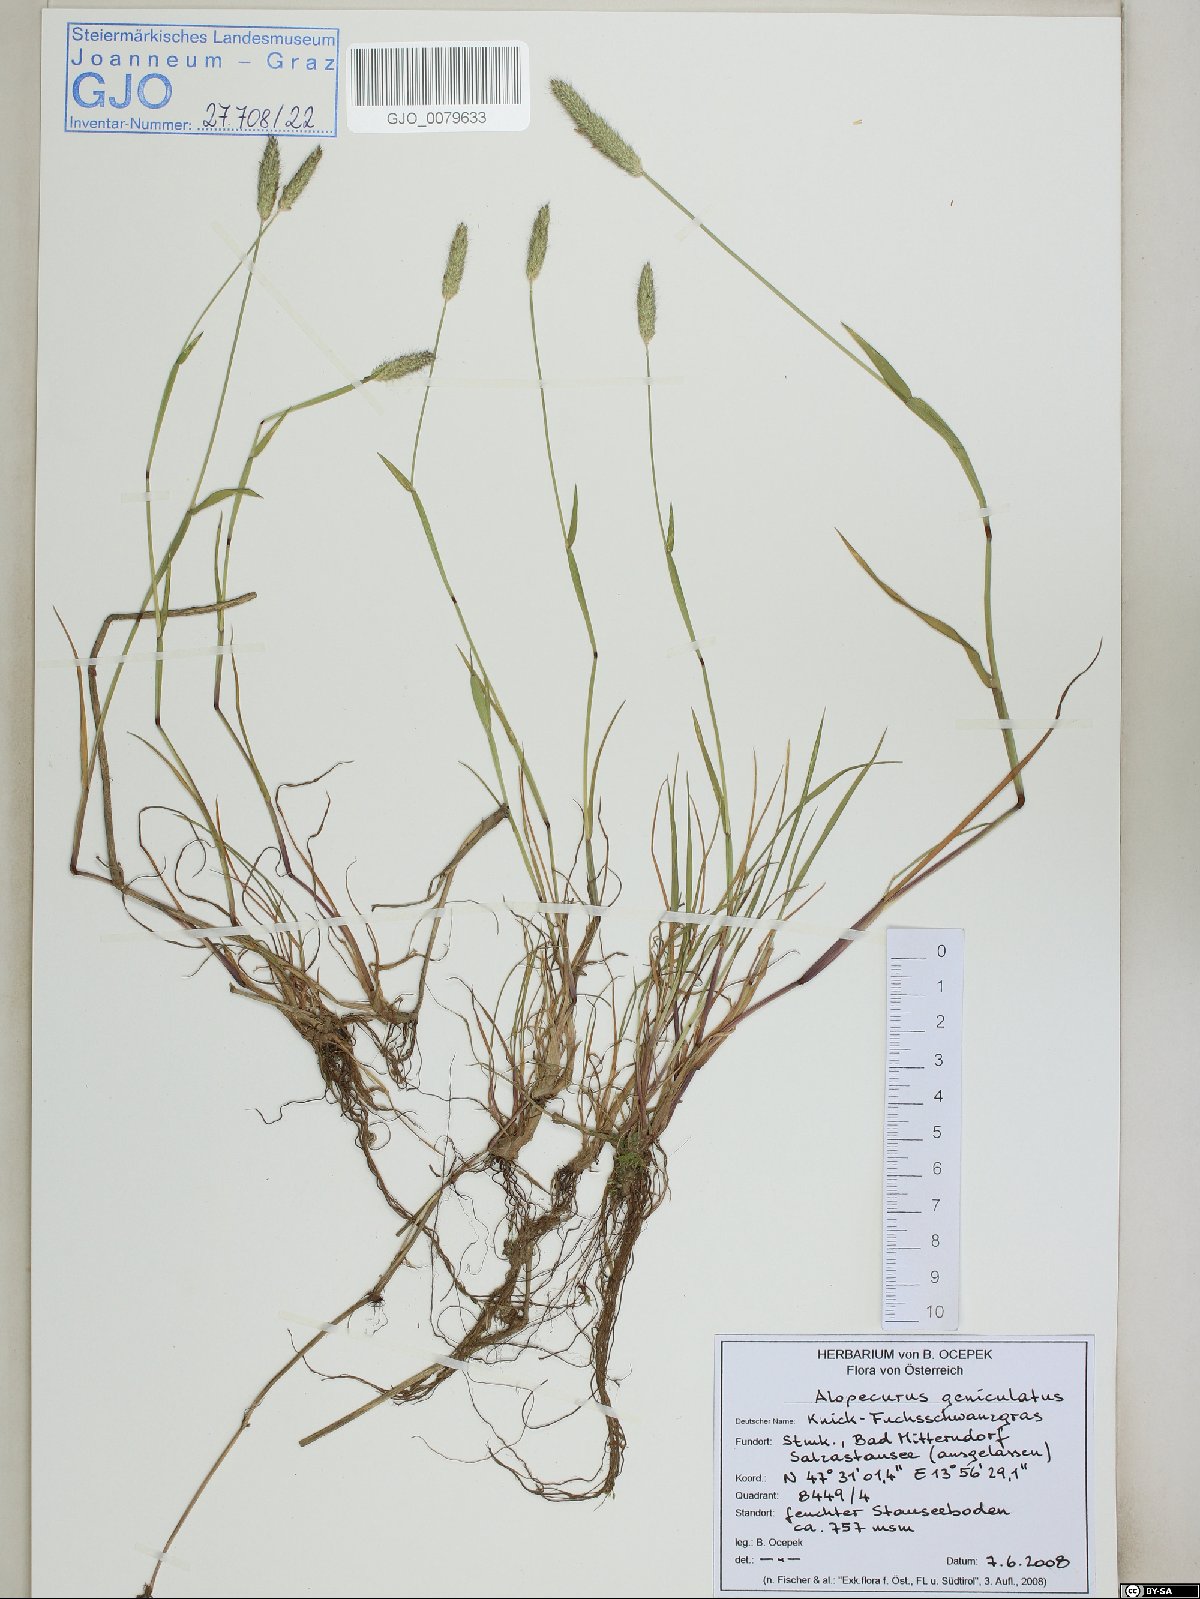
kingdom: Plantae
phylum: Tracheophyta
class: Liliopsida
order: Poales
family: Poaceae
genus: Alopecurus
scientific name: Alopecurus geniculatus
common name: Water foxtail
